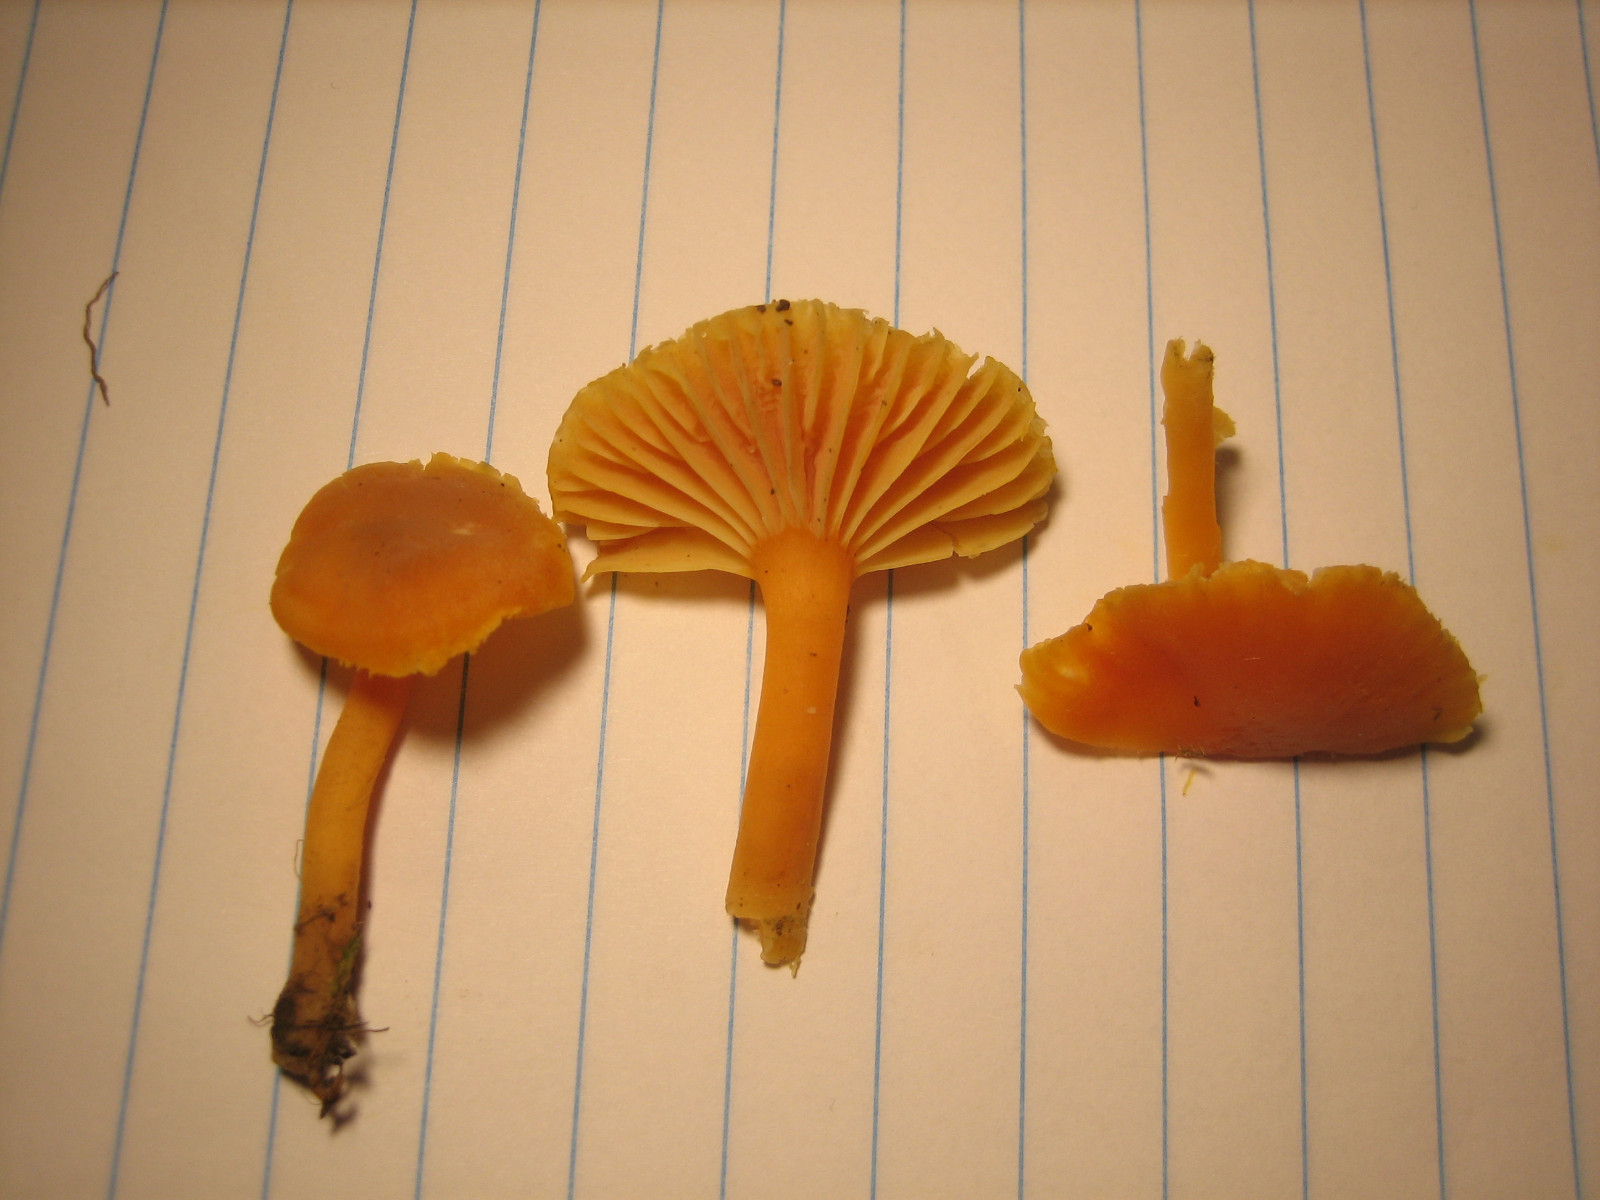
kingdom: Fungi
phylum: Basidiomycota
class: Agaricomycetes
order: Agaricales
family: Hygrophoraceae
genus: Hygrocybe
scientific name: Hygrocybe reidii
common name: honning-vokshat
